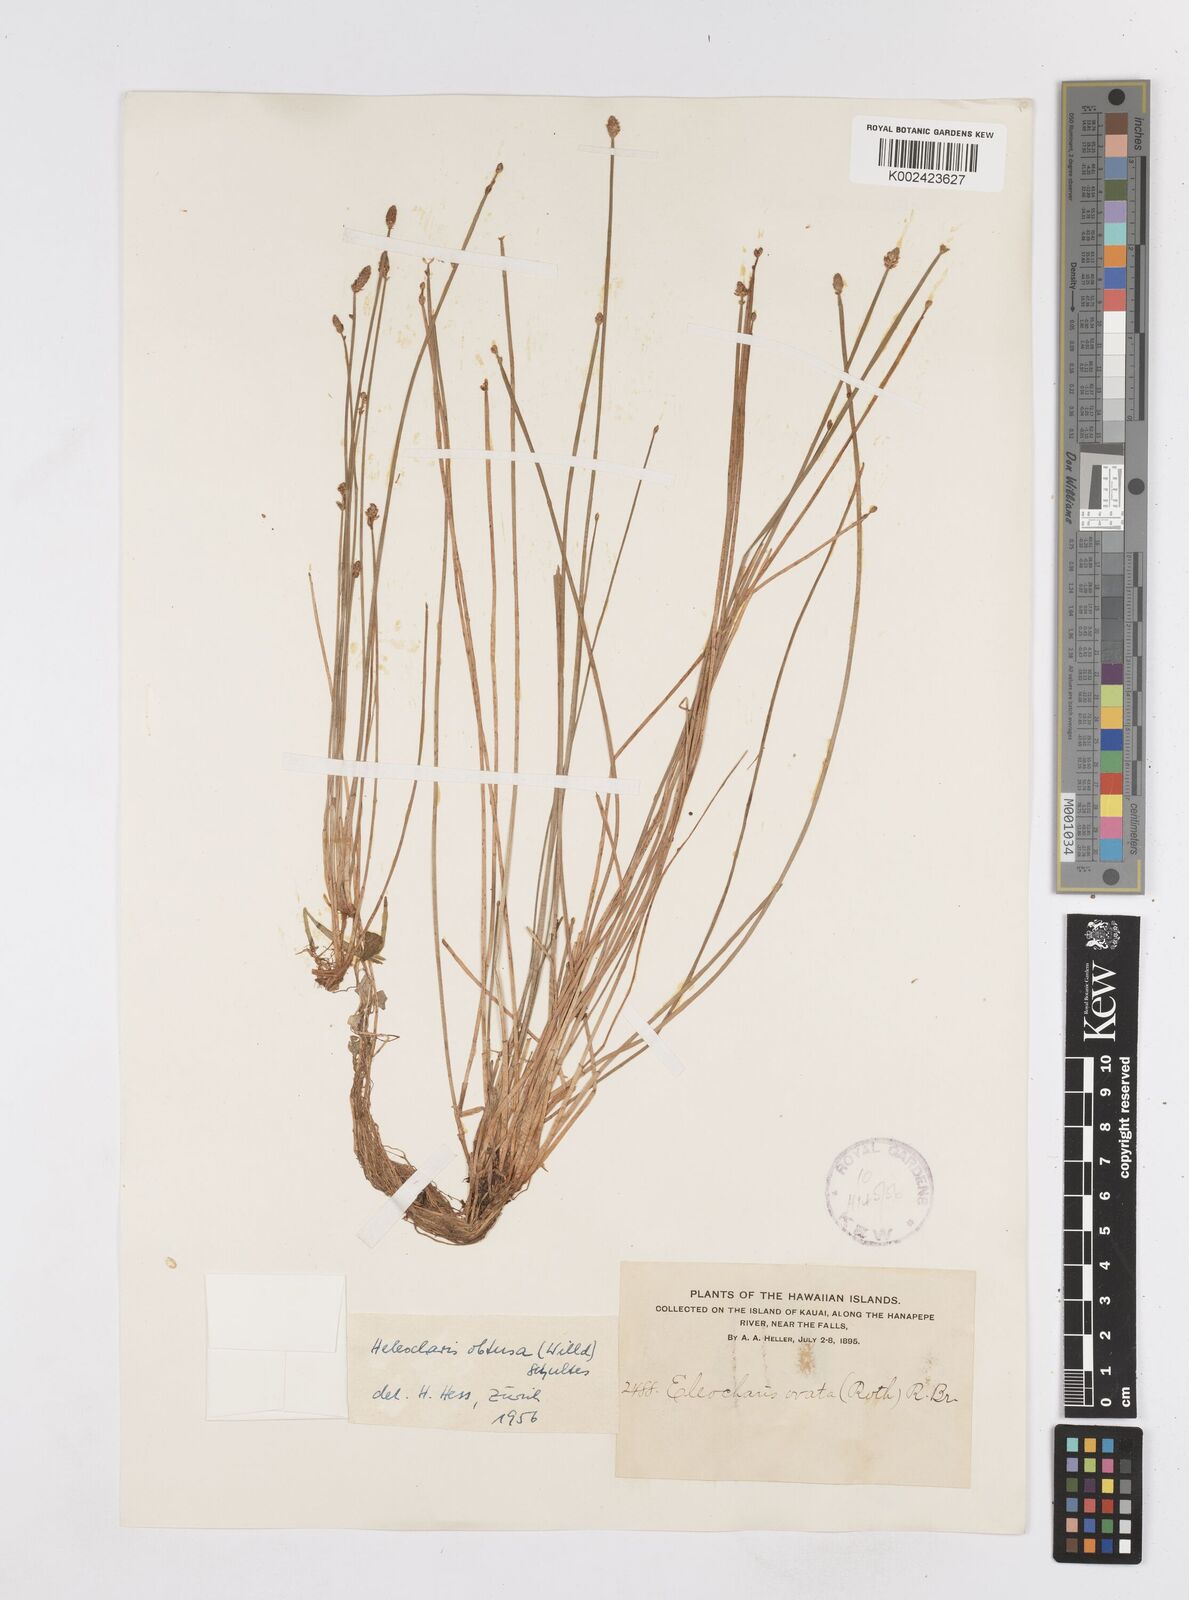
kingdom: Plantae
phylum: Tracheophyta
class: Liliopsida
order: Poales
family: Cyperaceae
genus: Eleocharis
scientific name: Eleocharis obtusa
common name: Blunt spikerush
